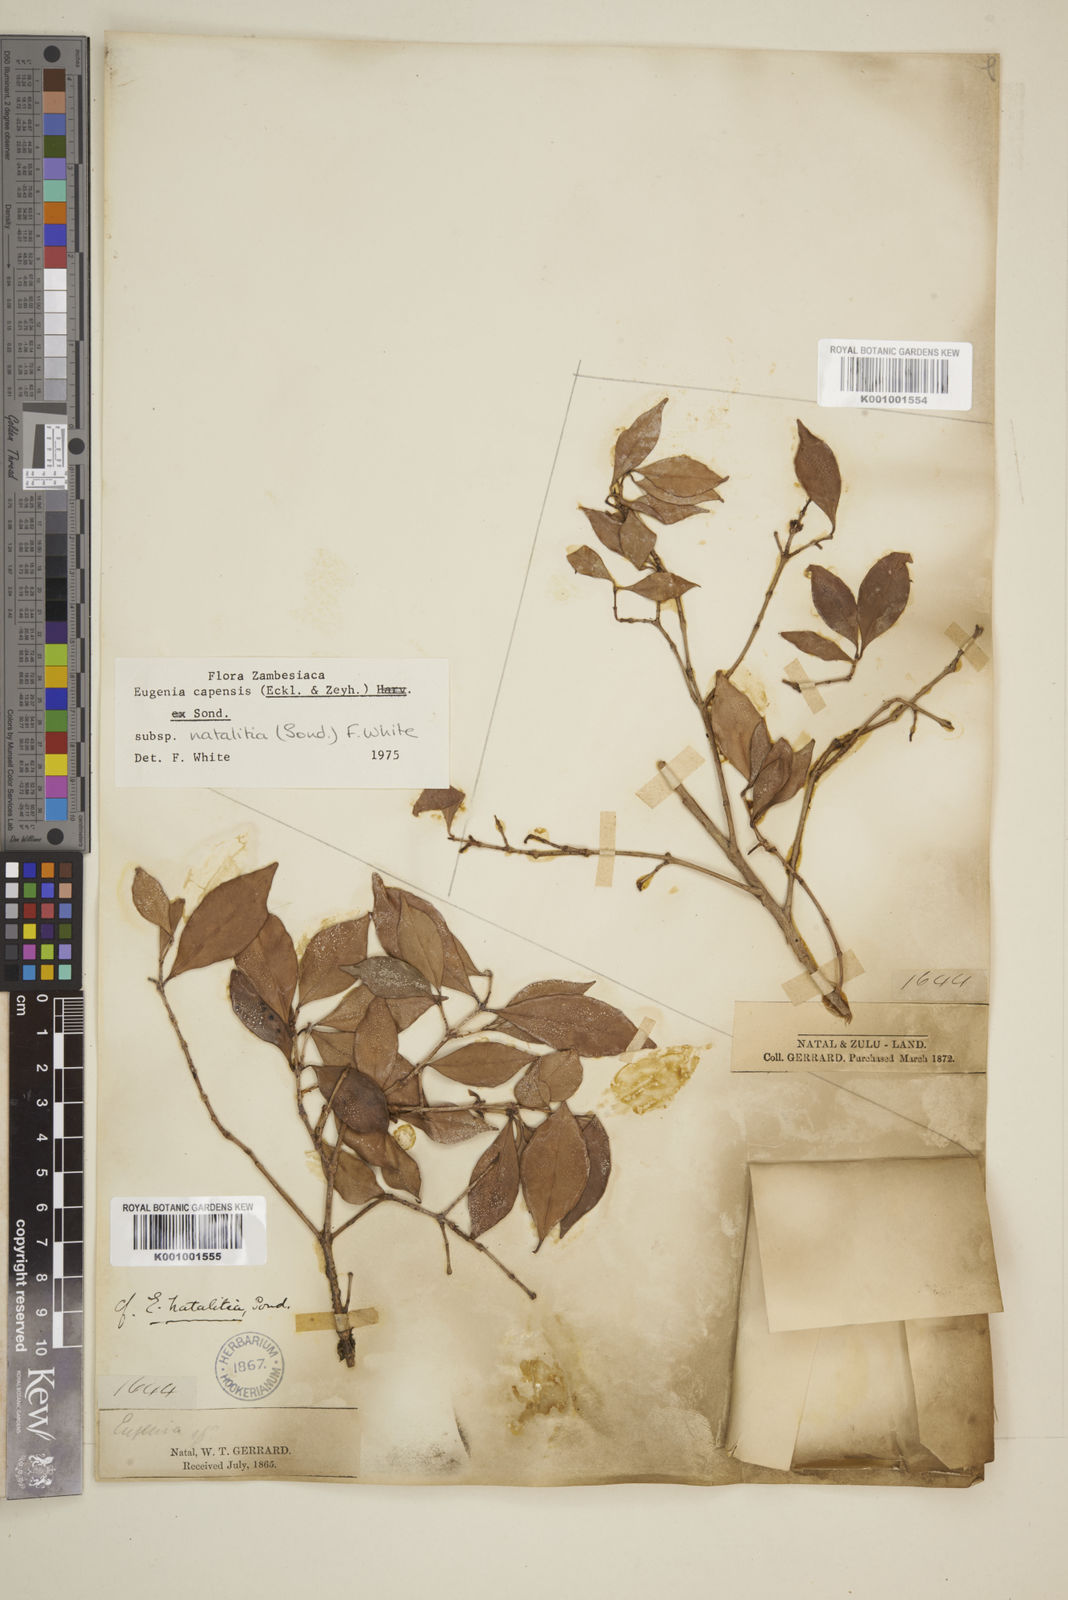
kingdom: Plantae
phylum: Tracheophyta
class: Magnoliopsida
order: Myrtales
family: Myrtaceae
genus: Eugenia
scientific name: Eugenia natalitia
